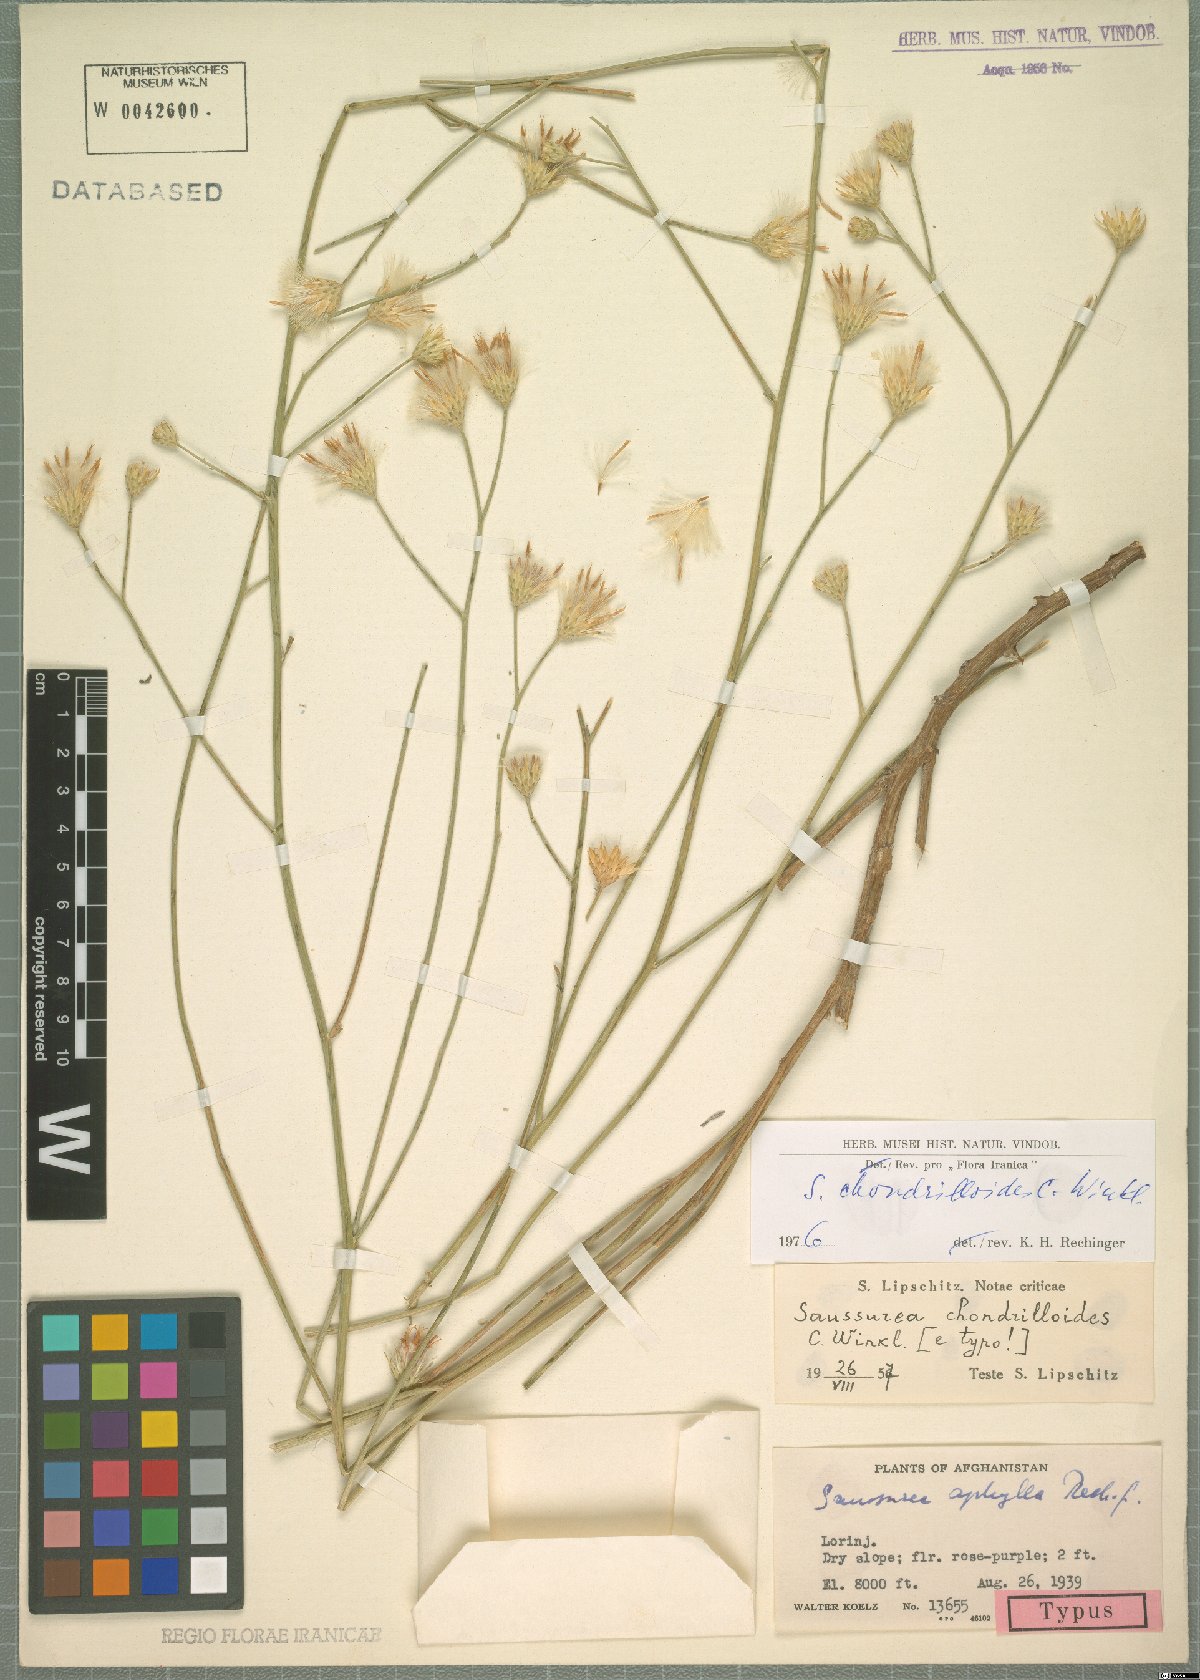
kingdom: Plantae
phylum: Tracheophyta
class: Magnoliopsida
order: Asterales
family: Asteraceae
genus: Saussurea
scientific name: Saussurea chondrilloides
